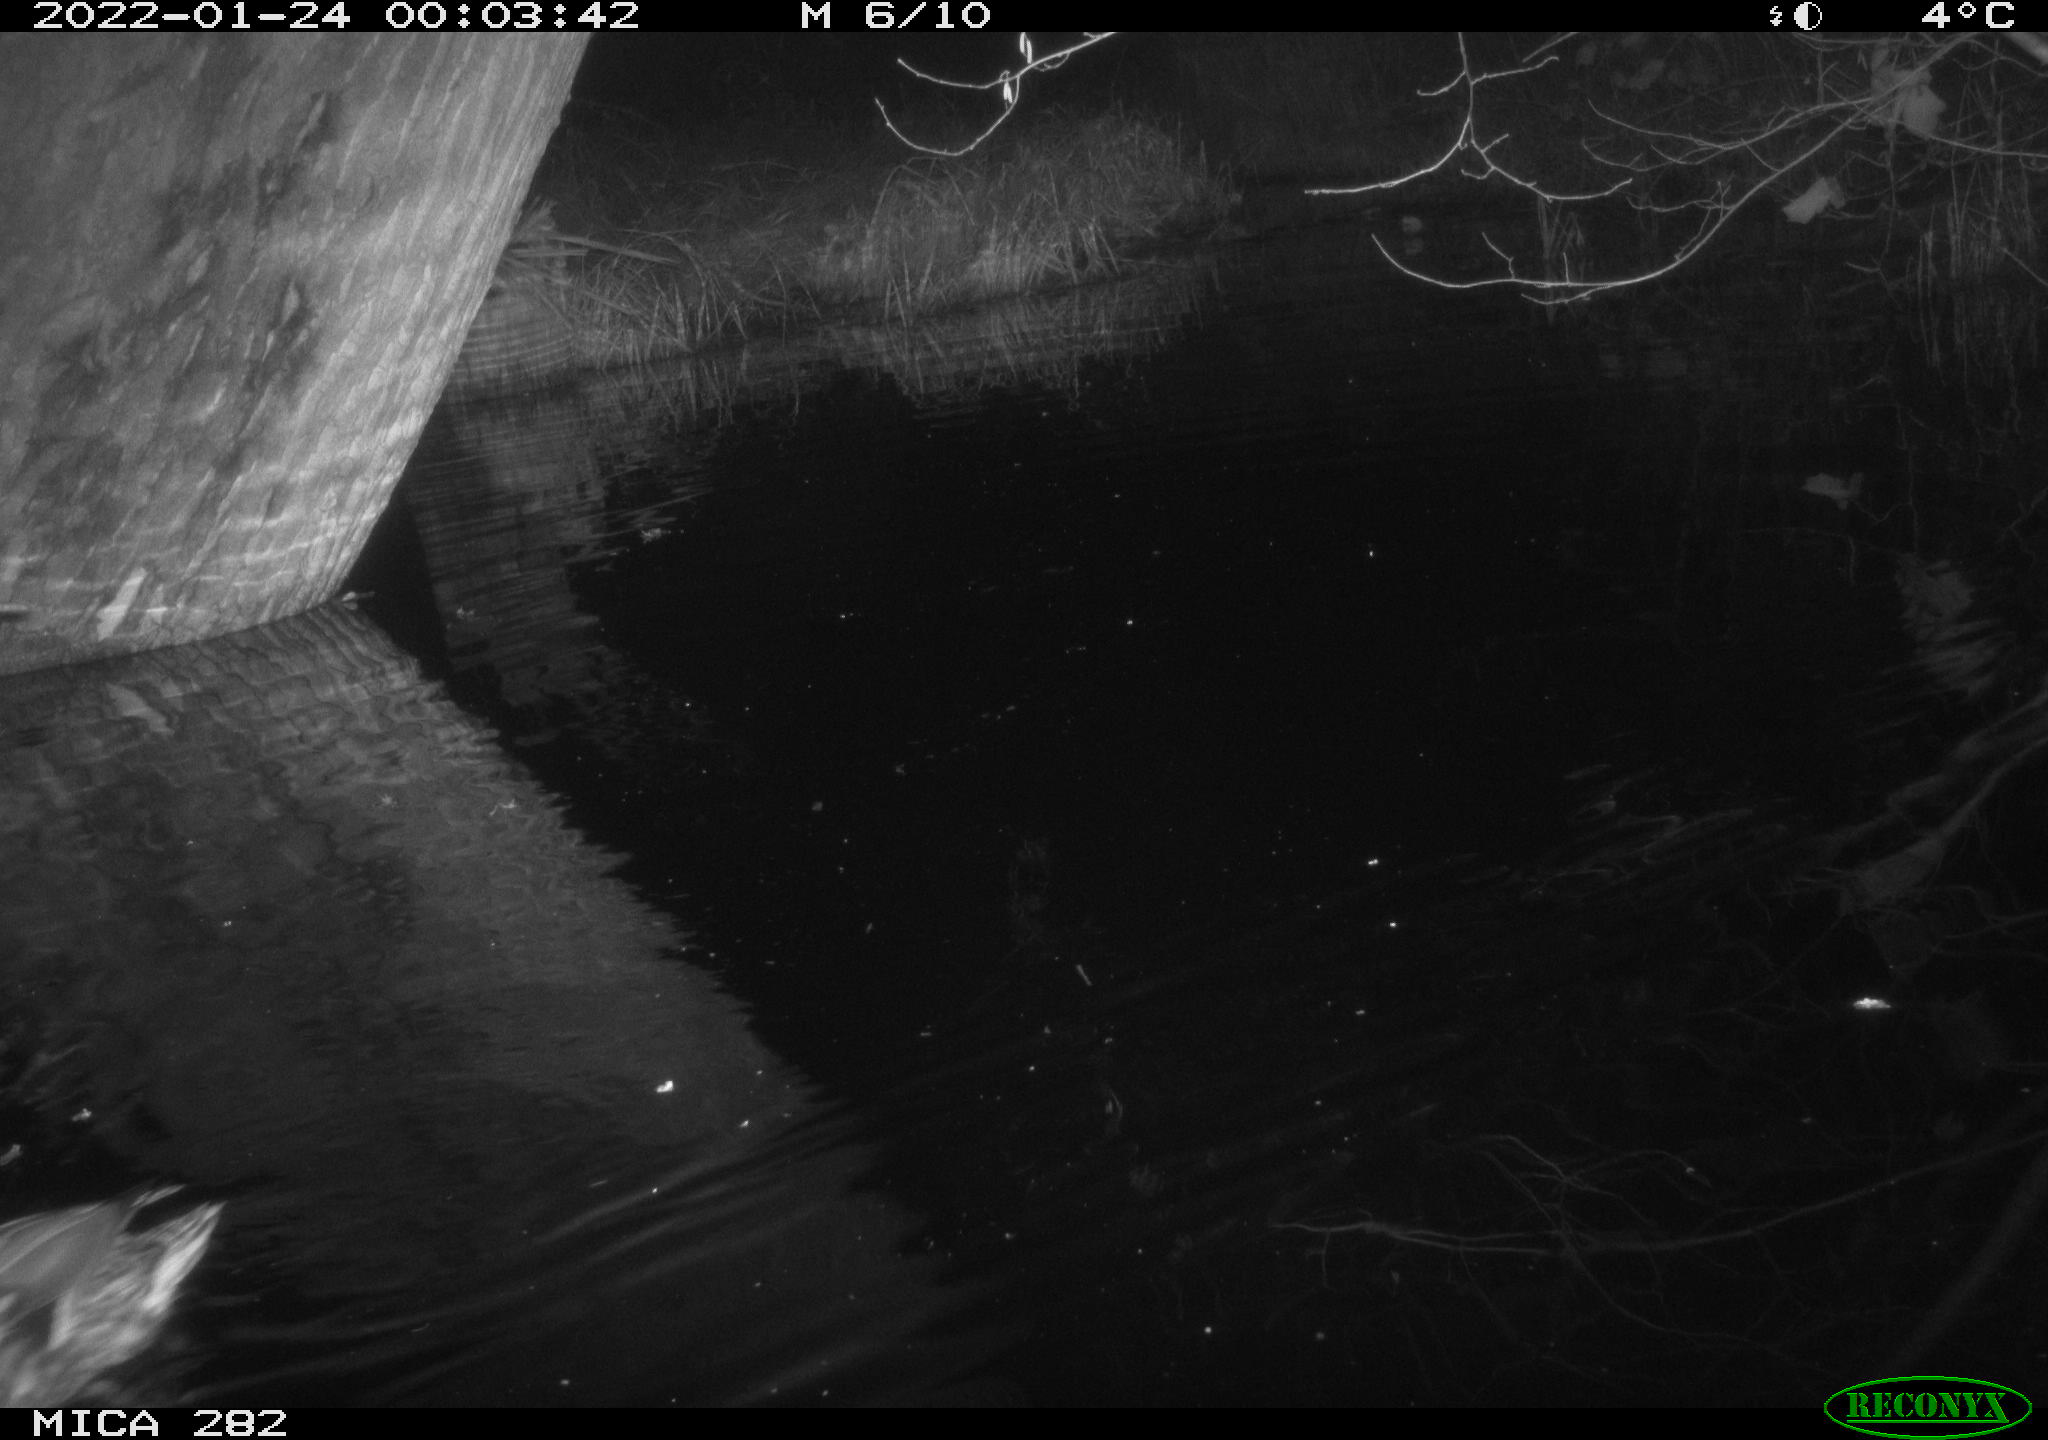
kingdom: Animalia
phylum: Chordata
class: Aves
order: Anseriformes
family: Anatidae
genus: Mareca
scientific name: Mareca strepera
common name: Gadwall
